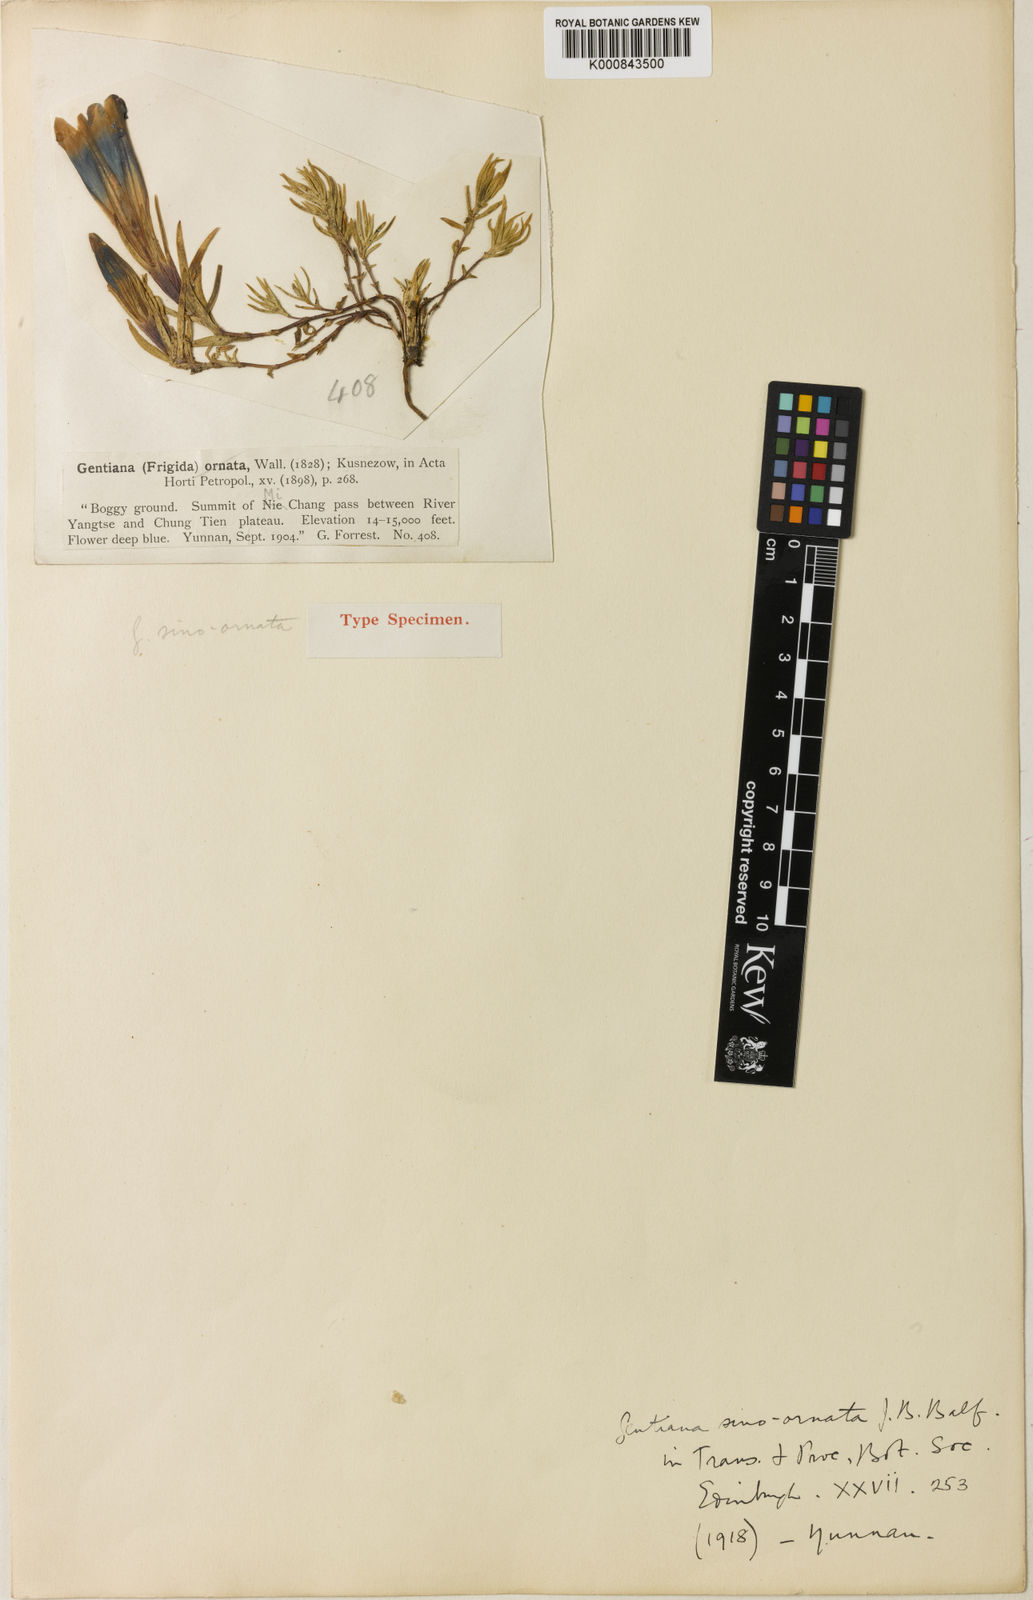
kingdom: Plantae
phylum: Tracheophyta
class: Magnoliopsida
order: Gentianales
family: Gentianaceae
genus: Gentiana
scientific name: Gentiana
